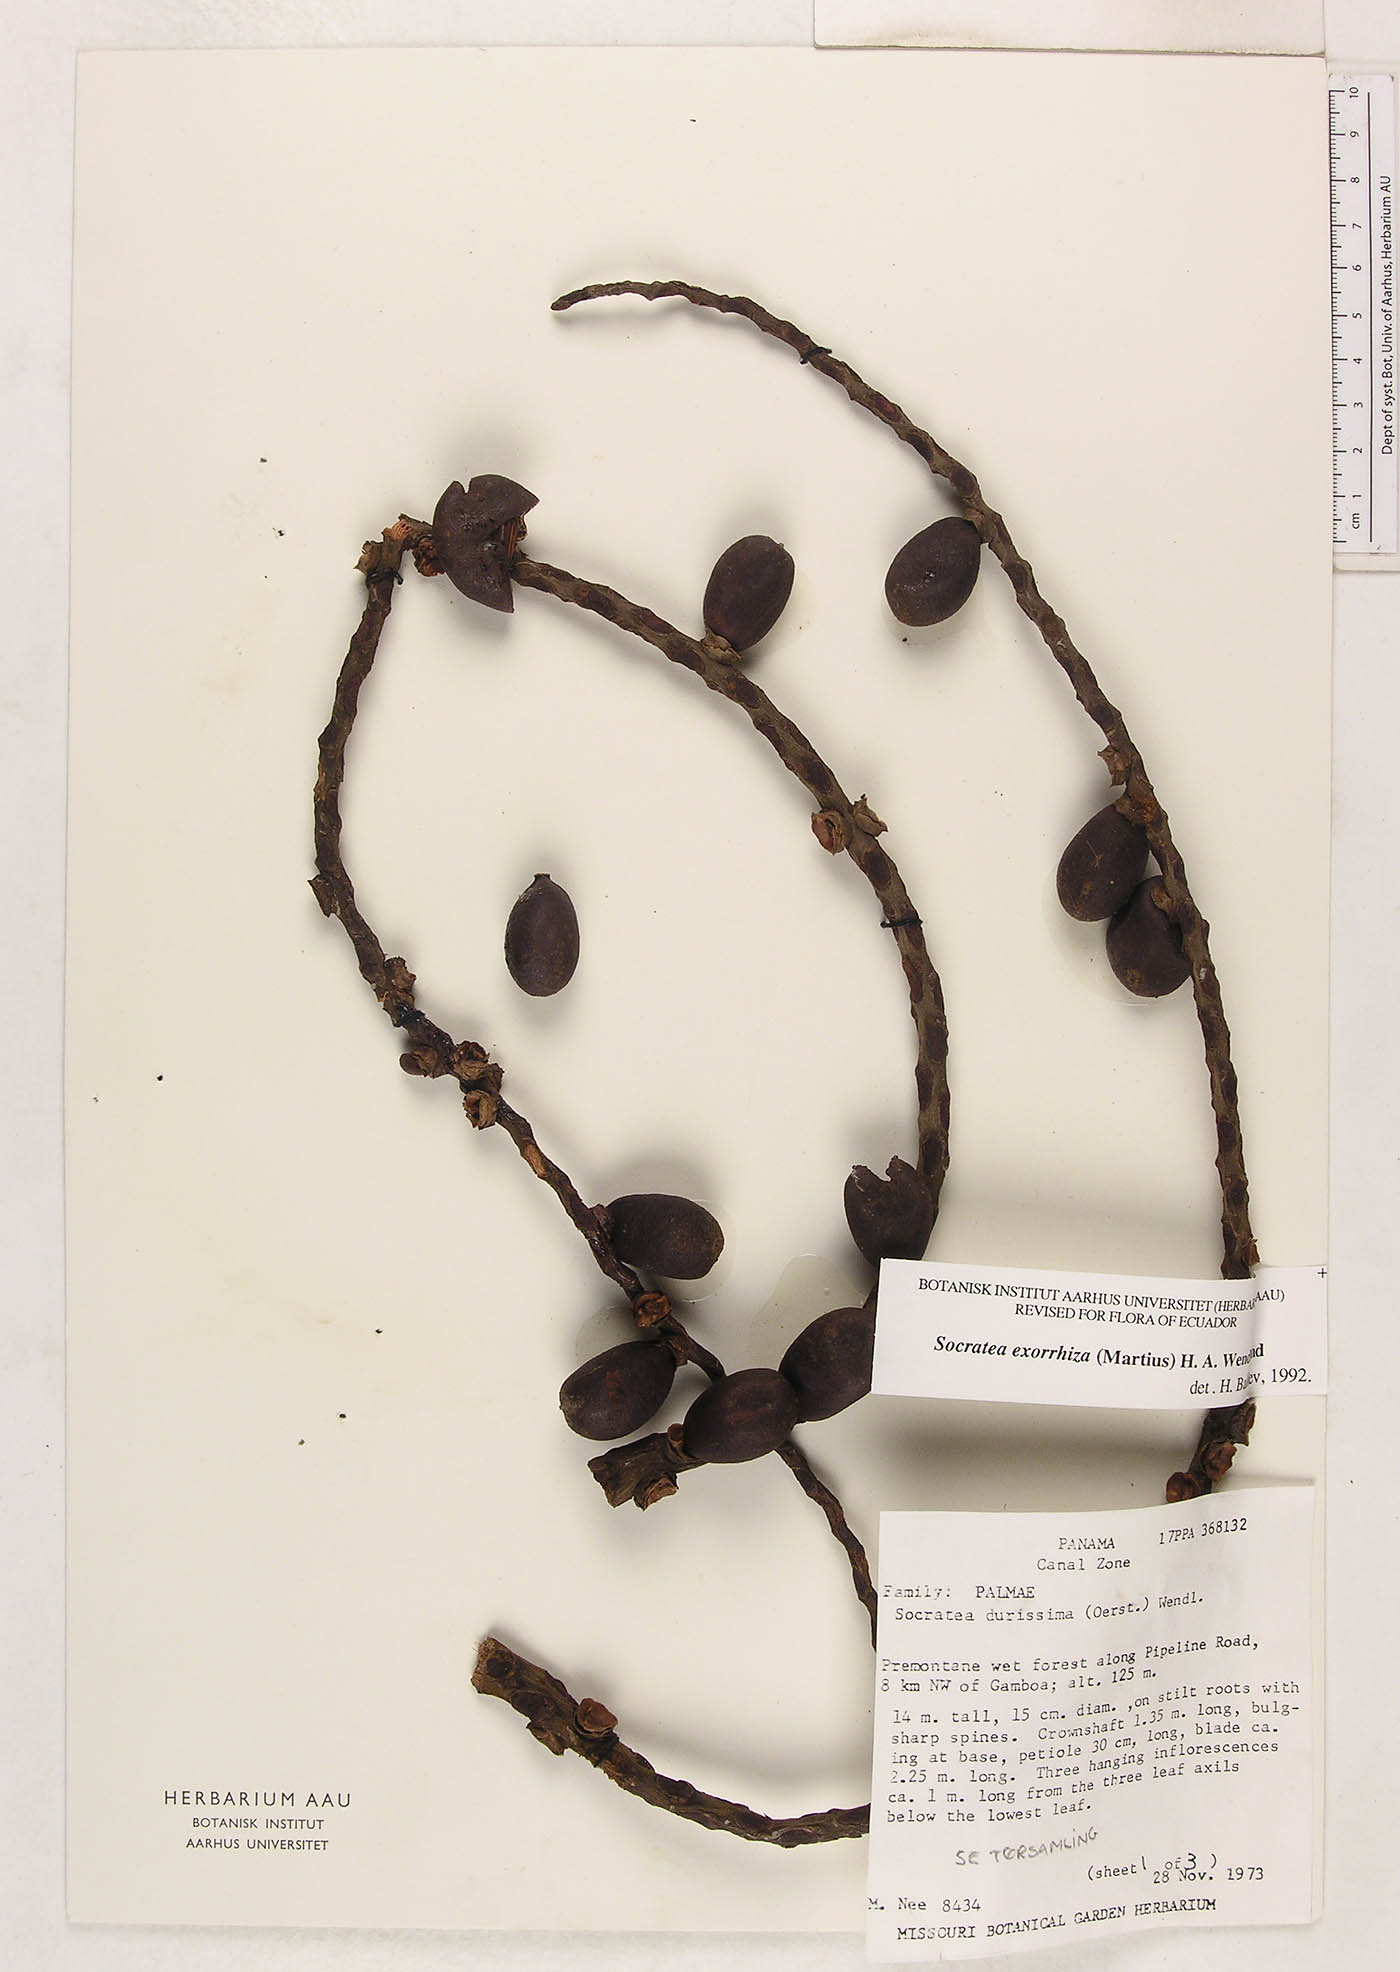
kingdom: Plantae
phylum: Tracheophyta
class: Liliopsida
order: Arecales
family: Arecaceae
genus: Socratea
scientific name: Socratea exorrhiza
